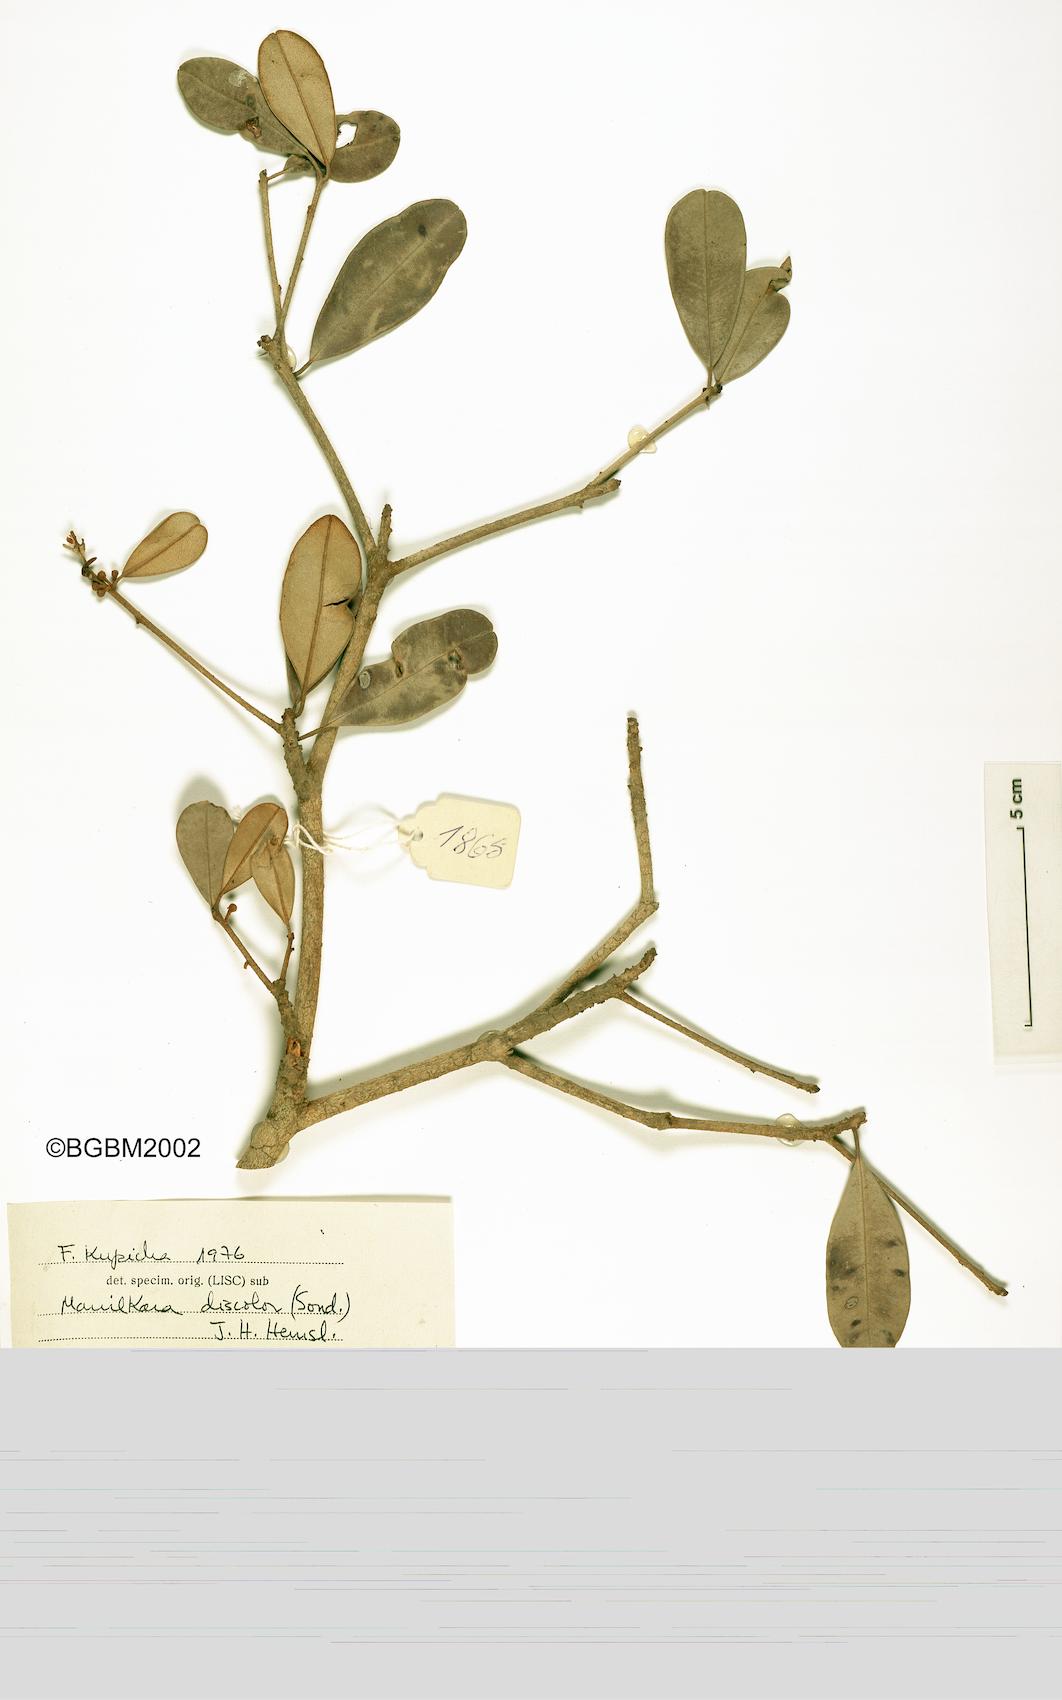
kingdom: Plantae
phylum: Tracheophyta
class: Magnoliopsida
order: Ericales
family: Sapotaceae
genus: Manilkara
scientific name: Manilkara discolor
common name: Forest milkberry
